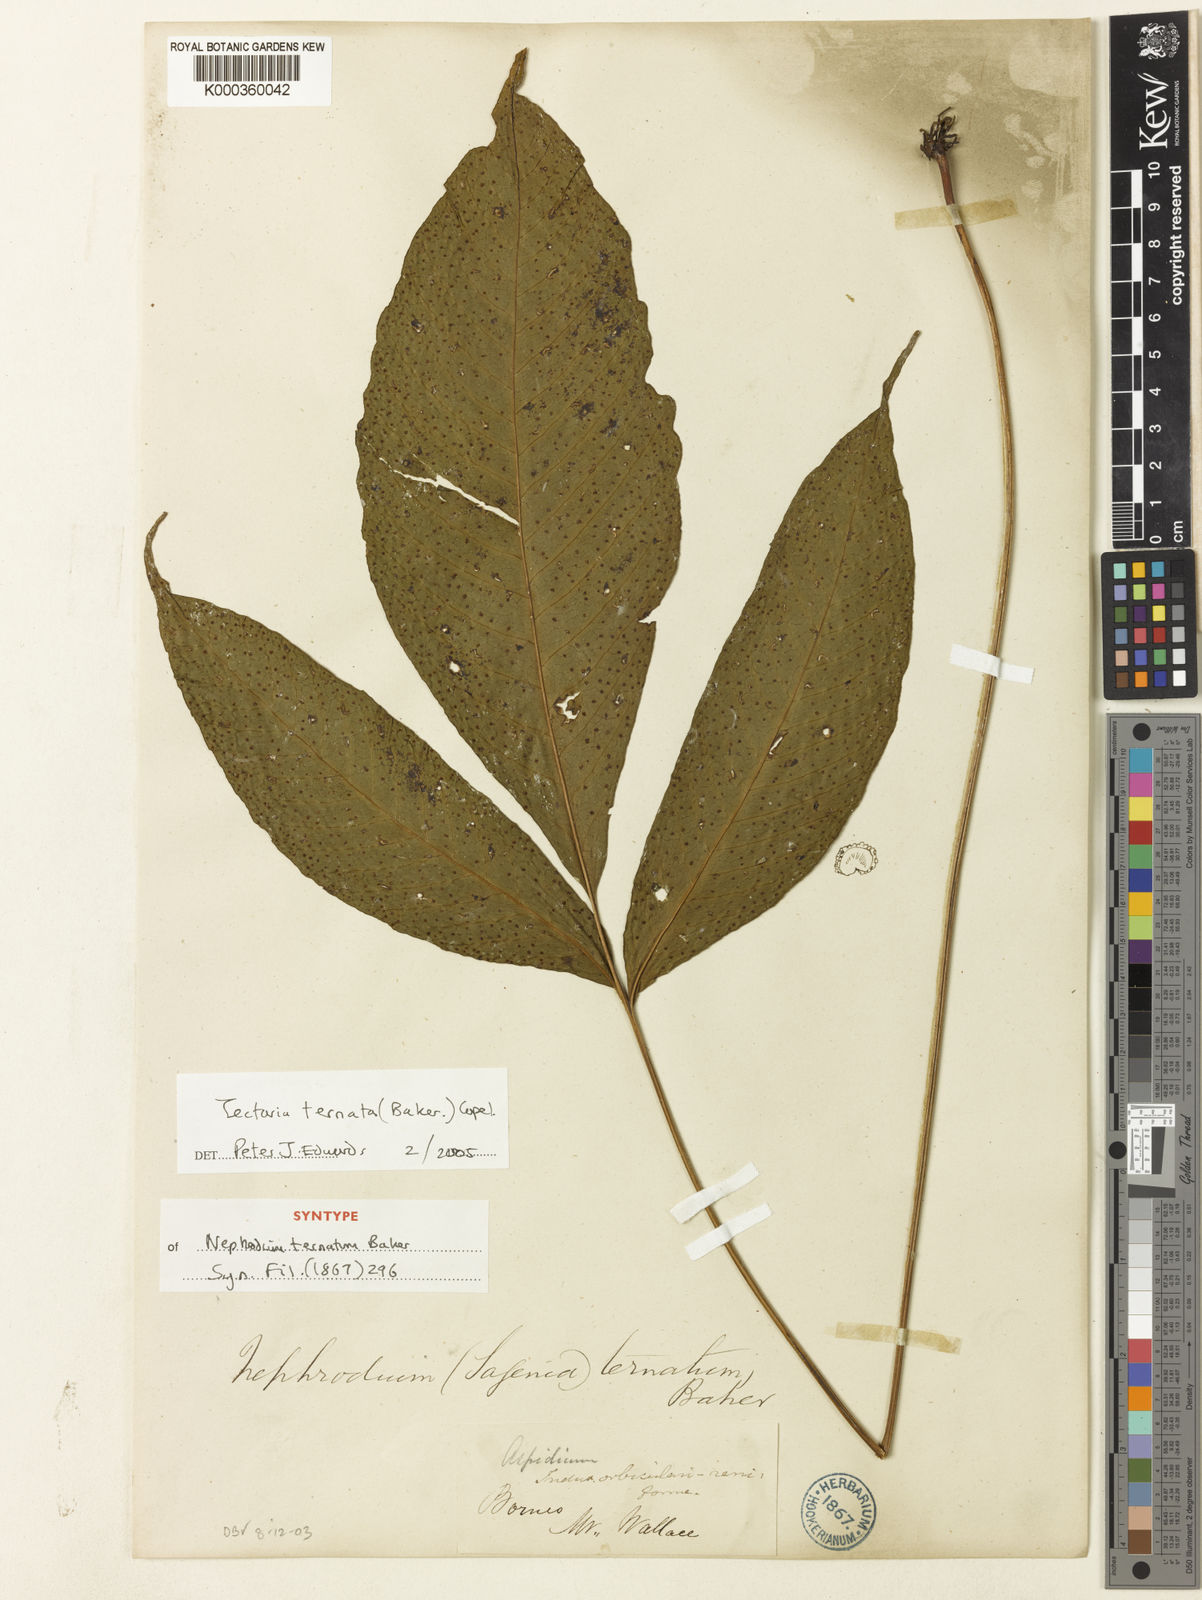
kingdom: Plantae
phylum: Tracheophyta
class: Polypodiopsida
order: Polypodiales
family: Tectariaceae
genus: Polydictyum
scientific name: Polydictyum ternatum
